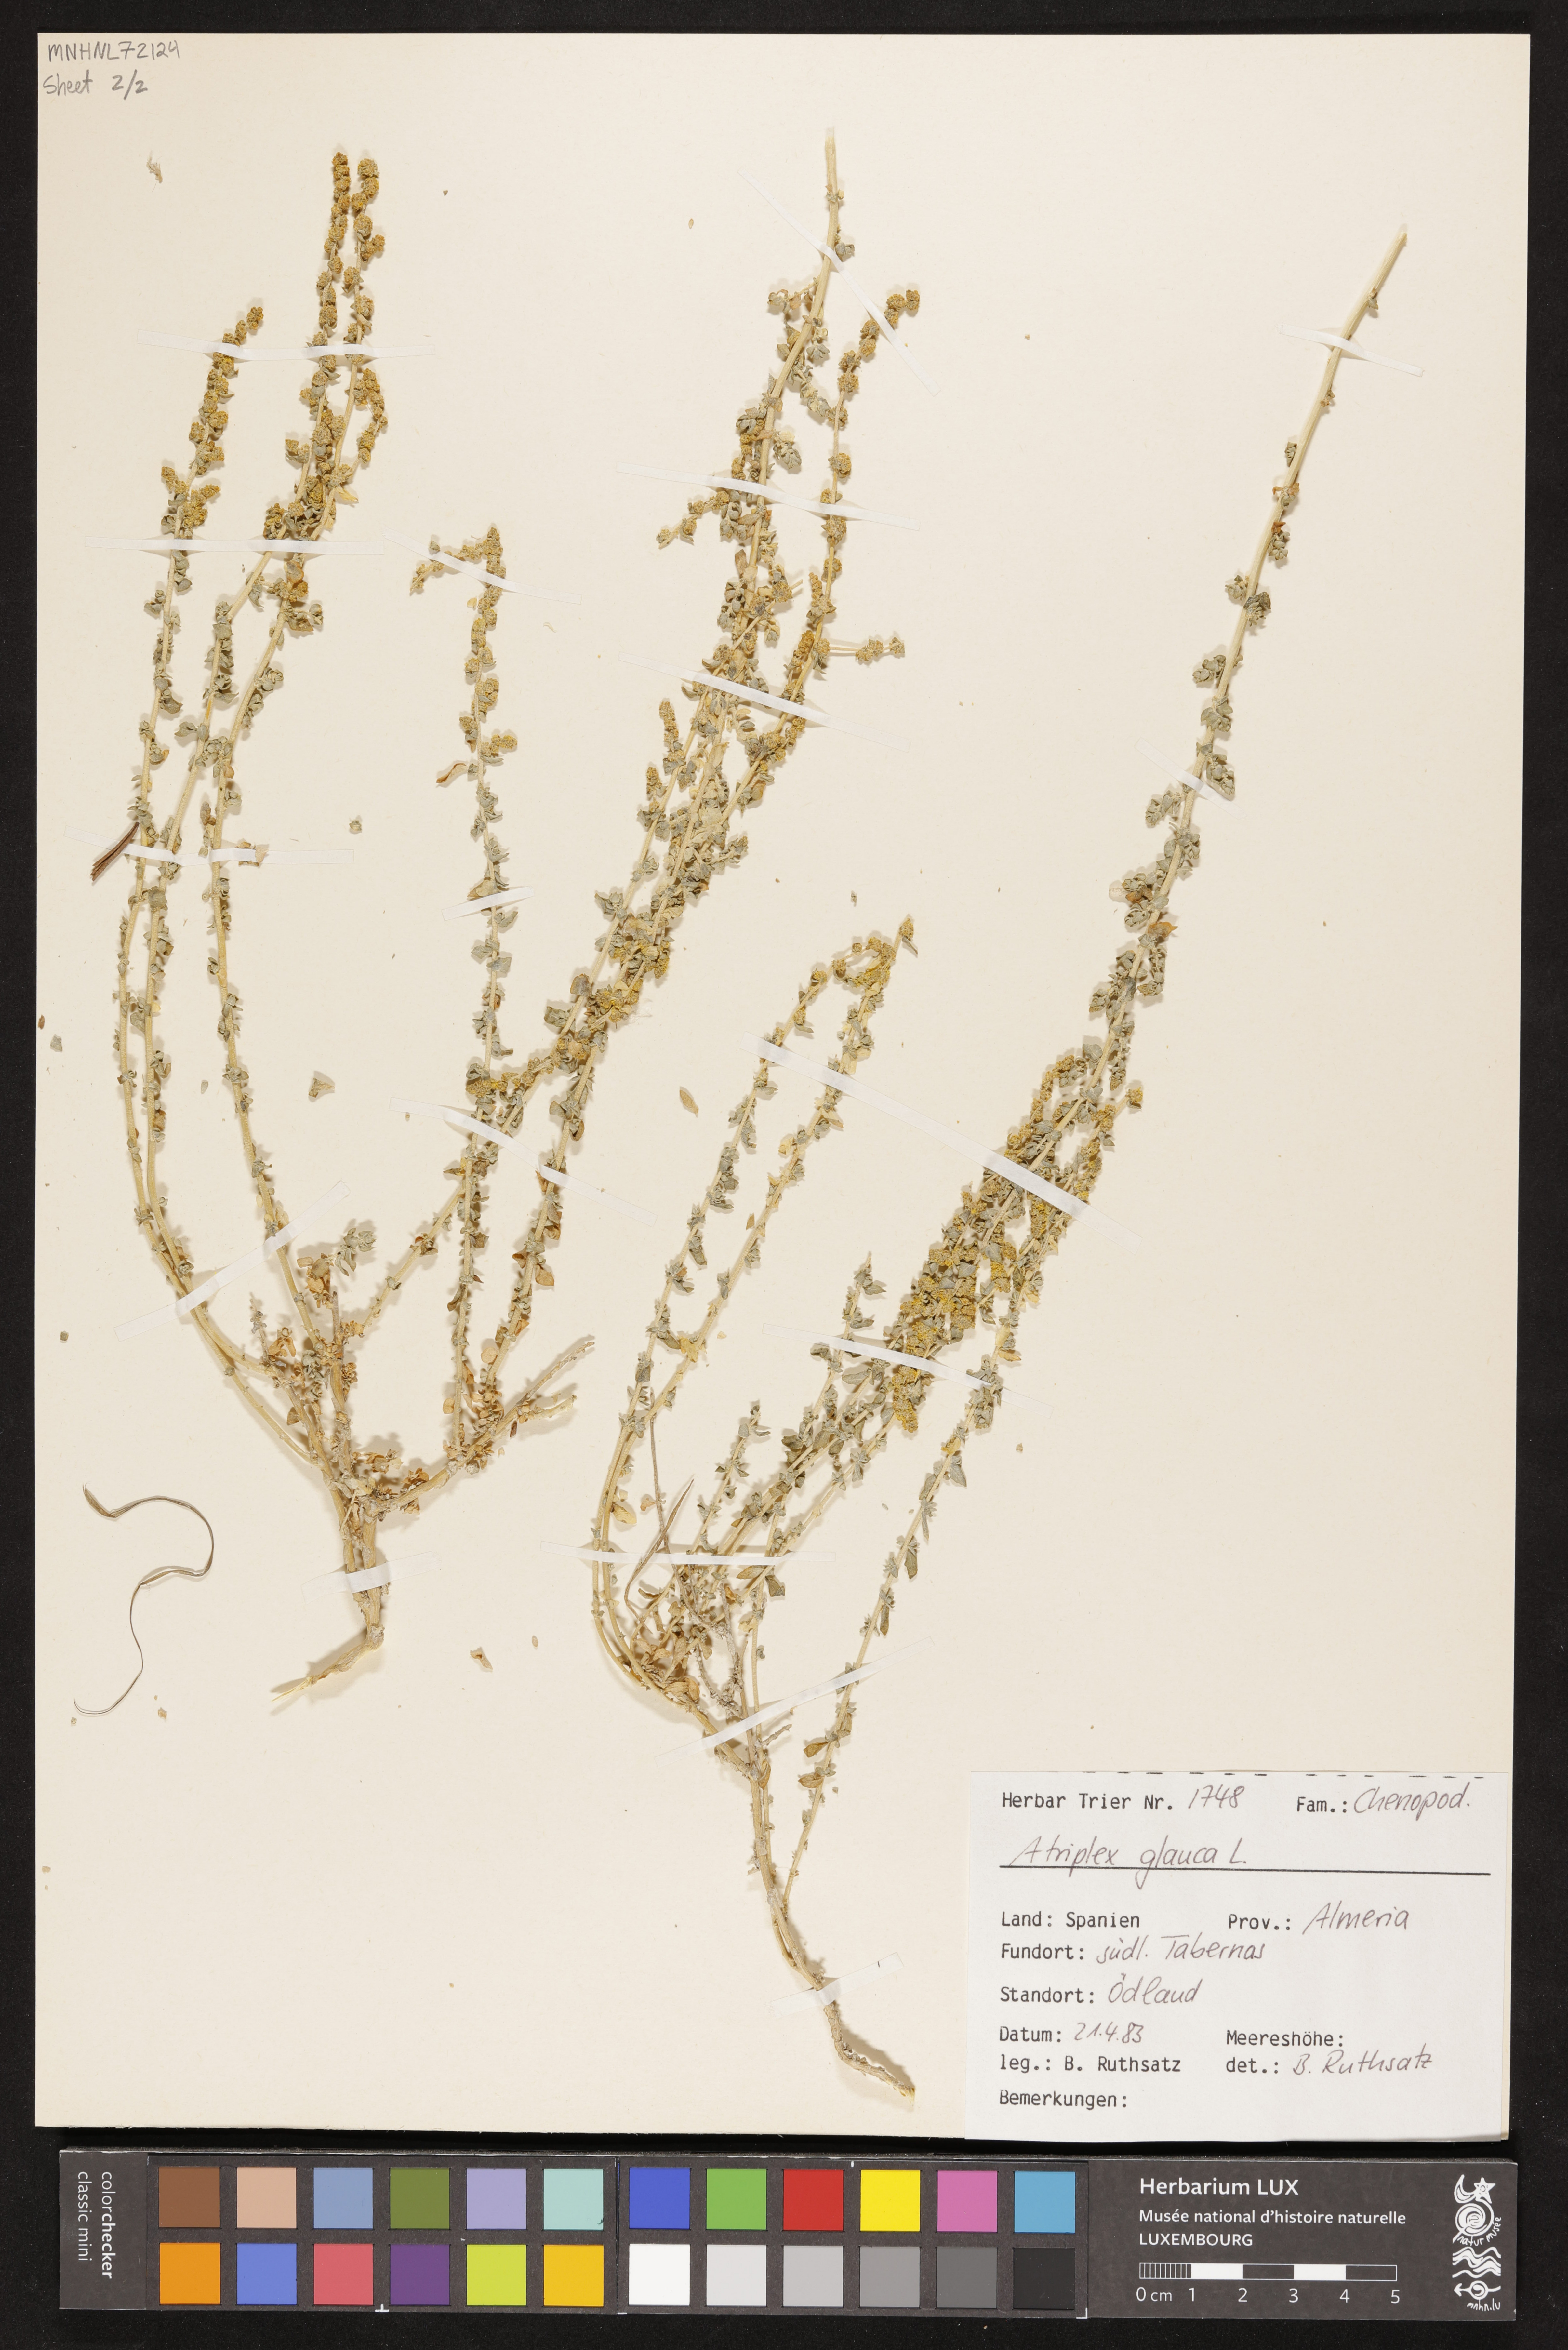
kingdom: Plantae
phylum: Tracheophyta
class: Magnoliopsida
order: Caryophyllales
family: Amaranthaceae
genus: Atriplex
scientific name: Atriplex glauca
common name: Waxy saltbush
